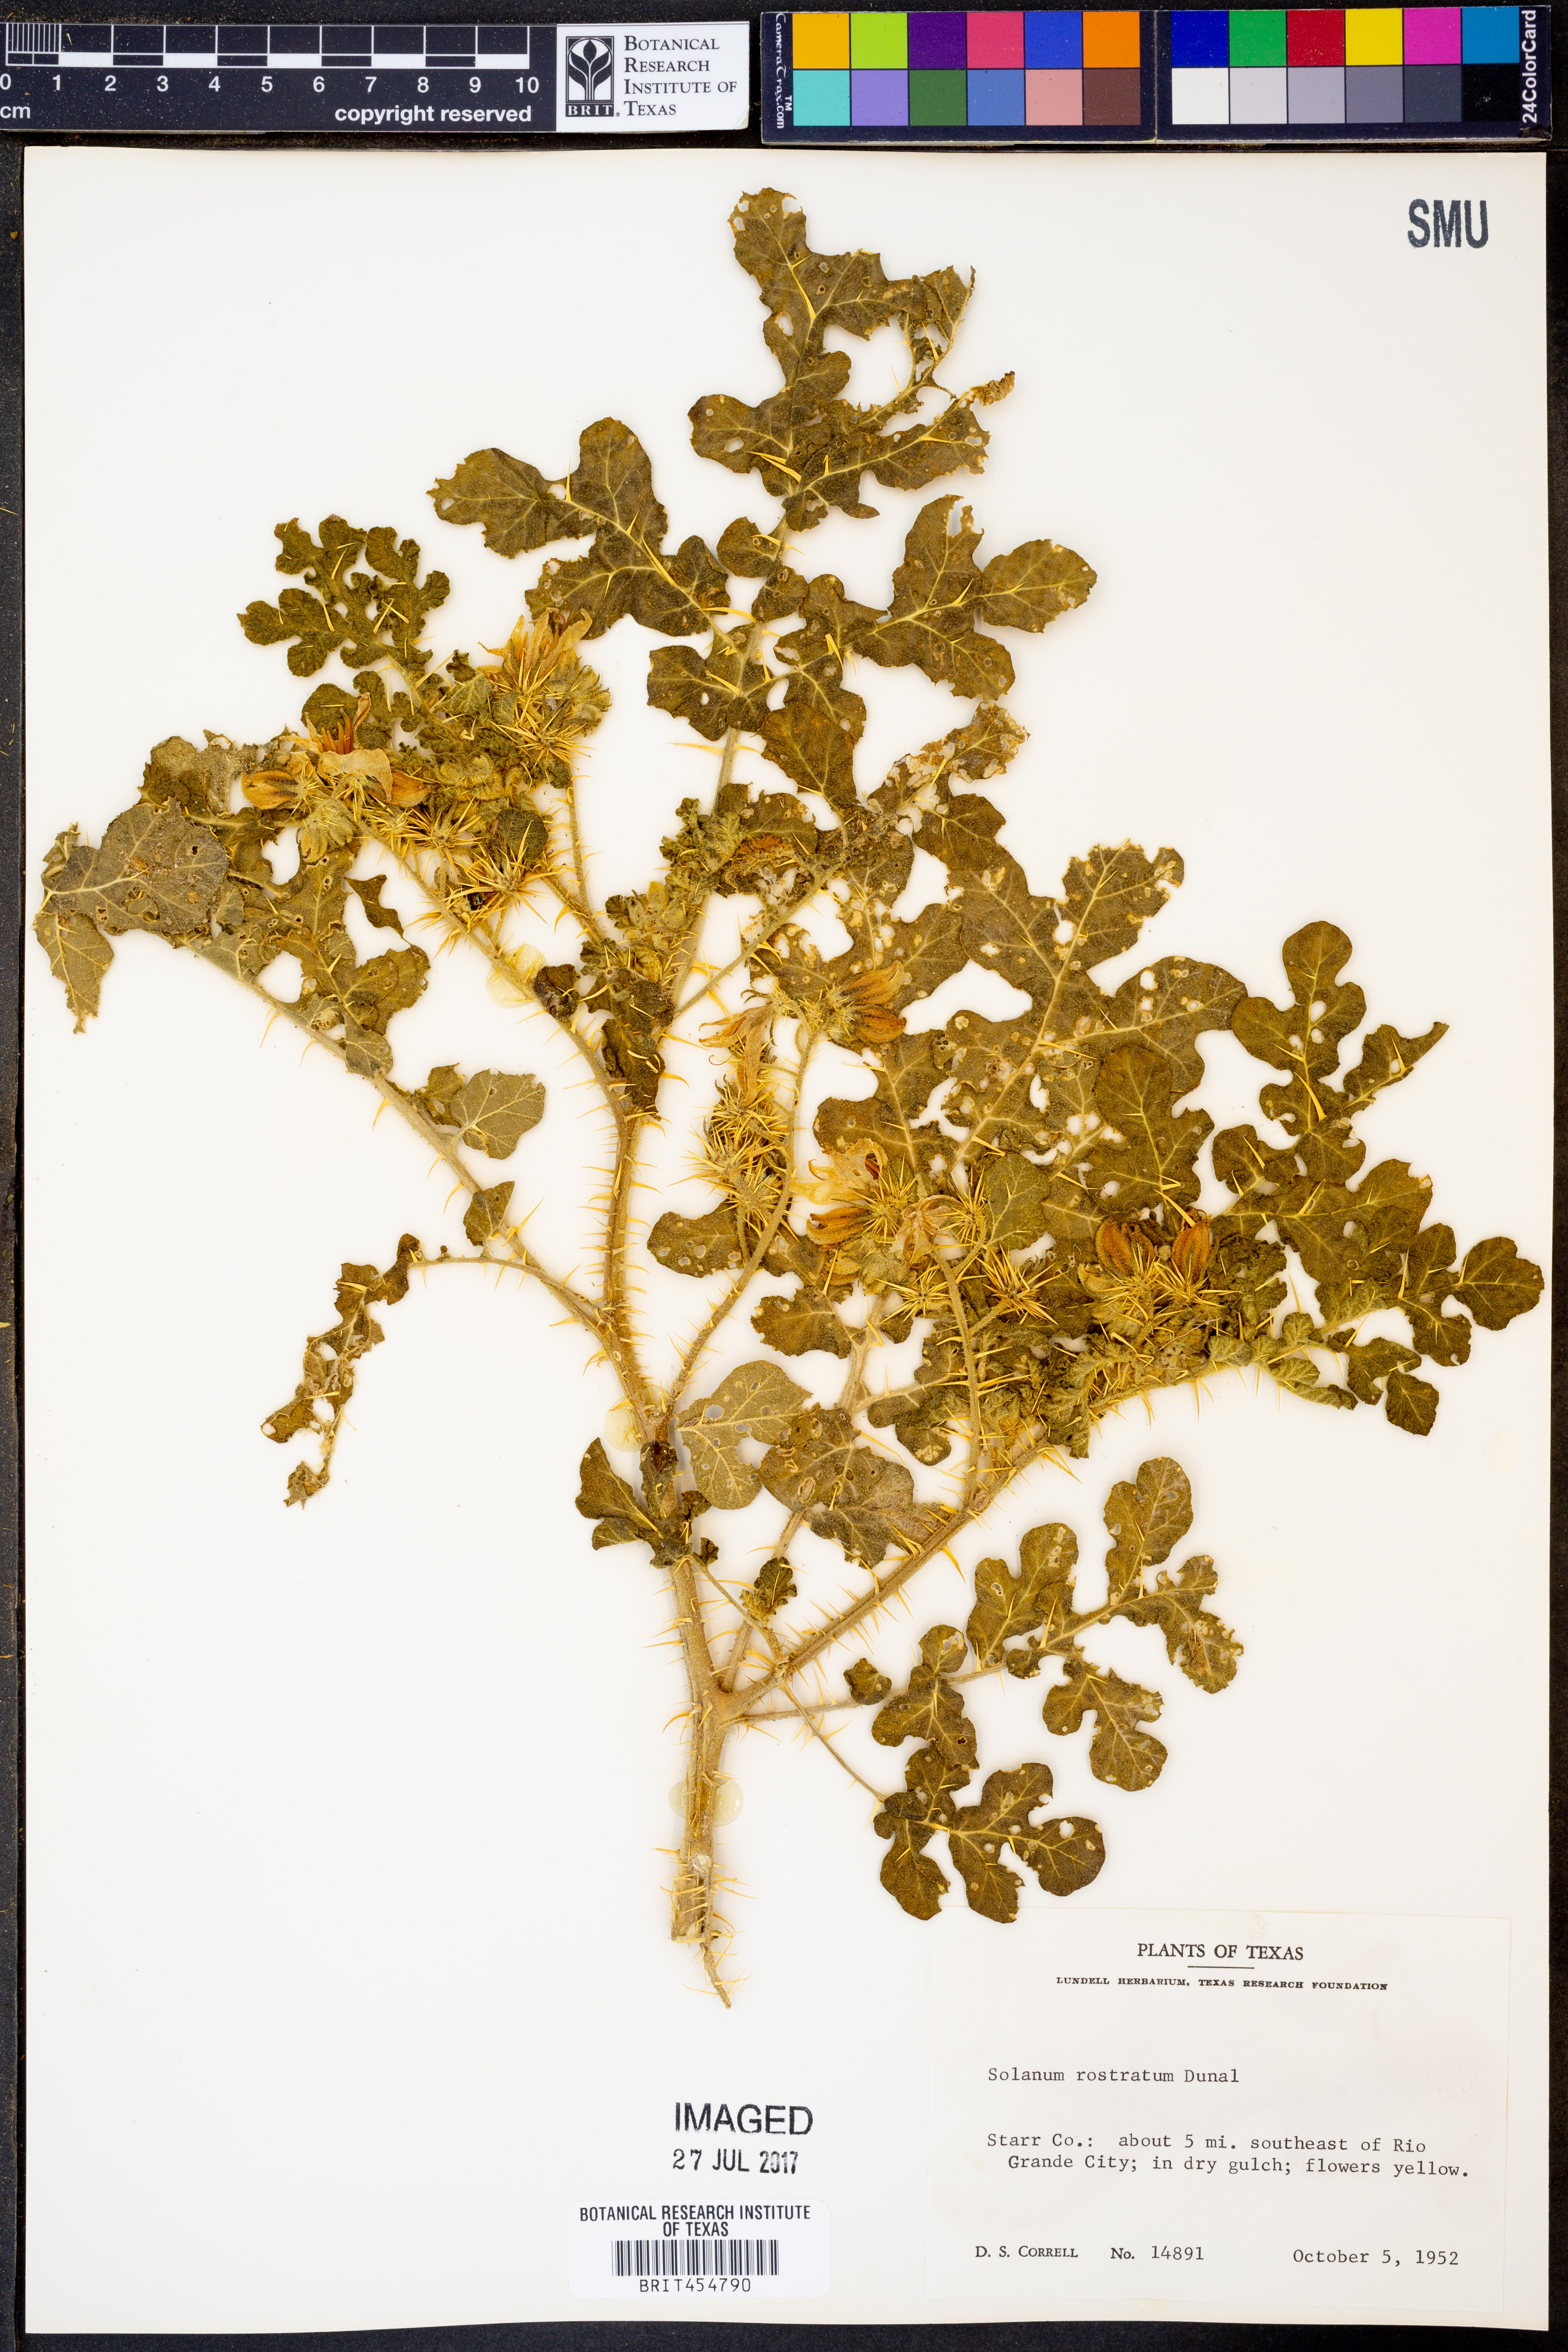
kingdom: Plantae
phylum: Tracheophyta
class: Magnoliopsida
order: Solanales
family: Solanaceae
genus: Solanum
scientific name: Solanum angustifolium
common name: Buffalobur nightshade
